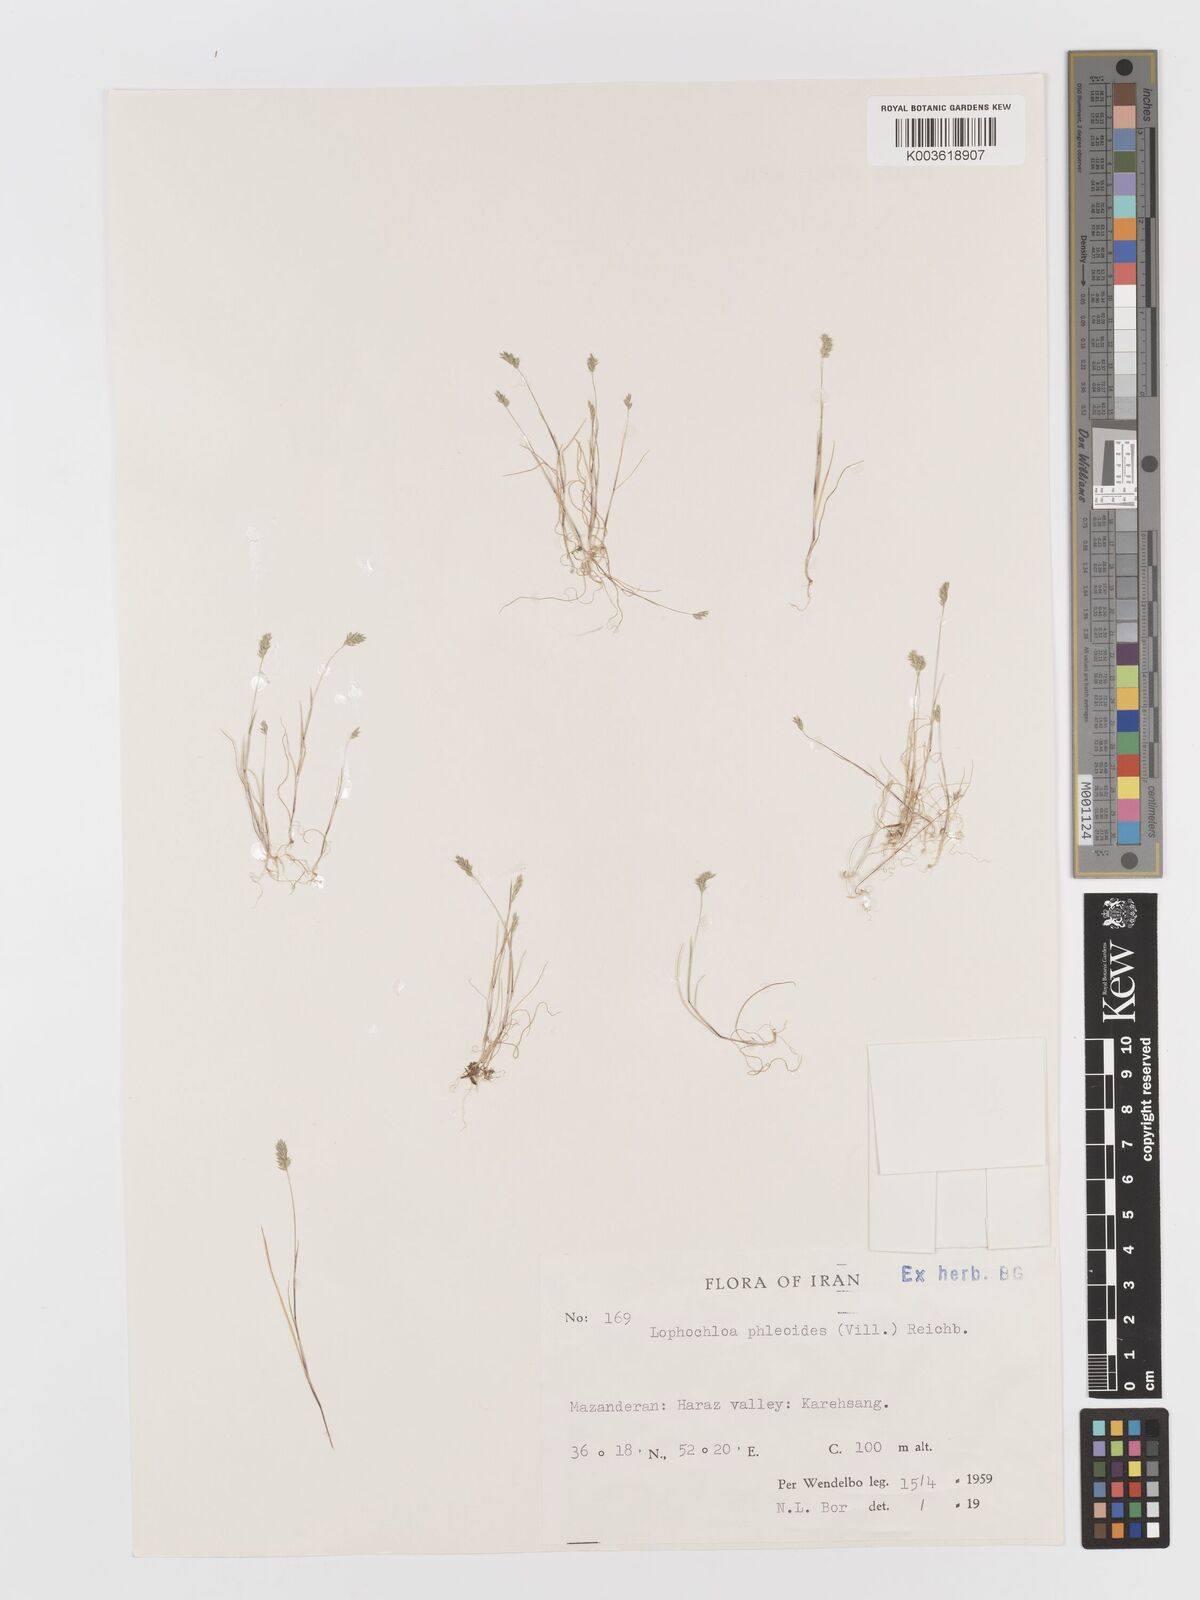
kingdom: Plantae
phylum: Tracheophyta
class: Liliopsida
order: Poales
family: Poaceae
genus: Rostraria
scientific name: Rostraria cristata
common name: Mediterranean hair-grass
